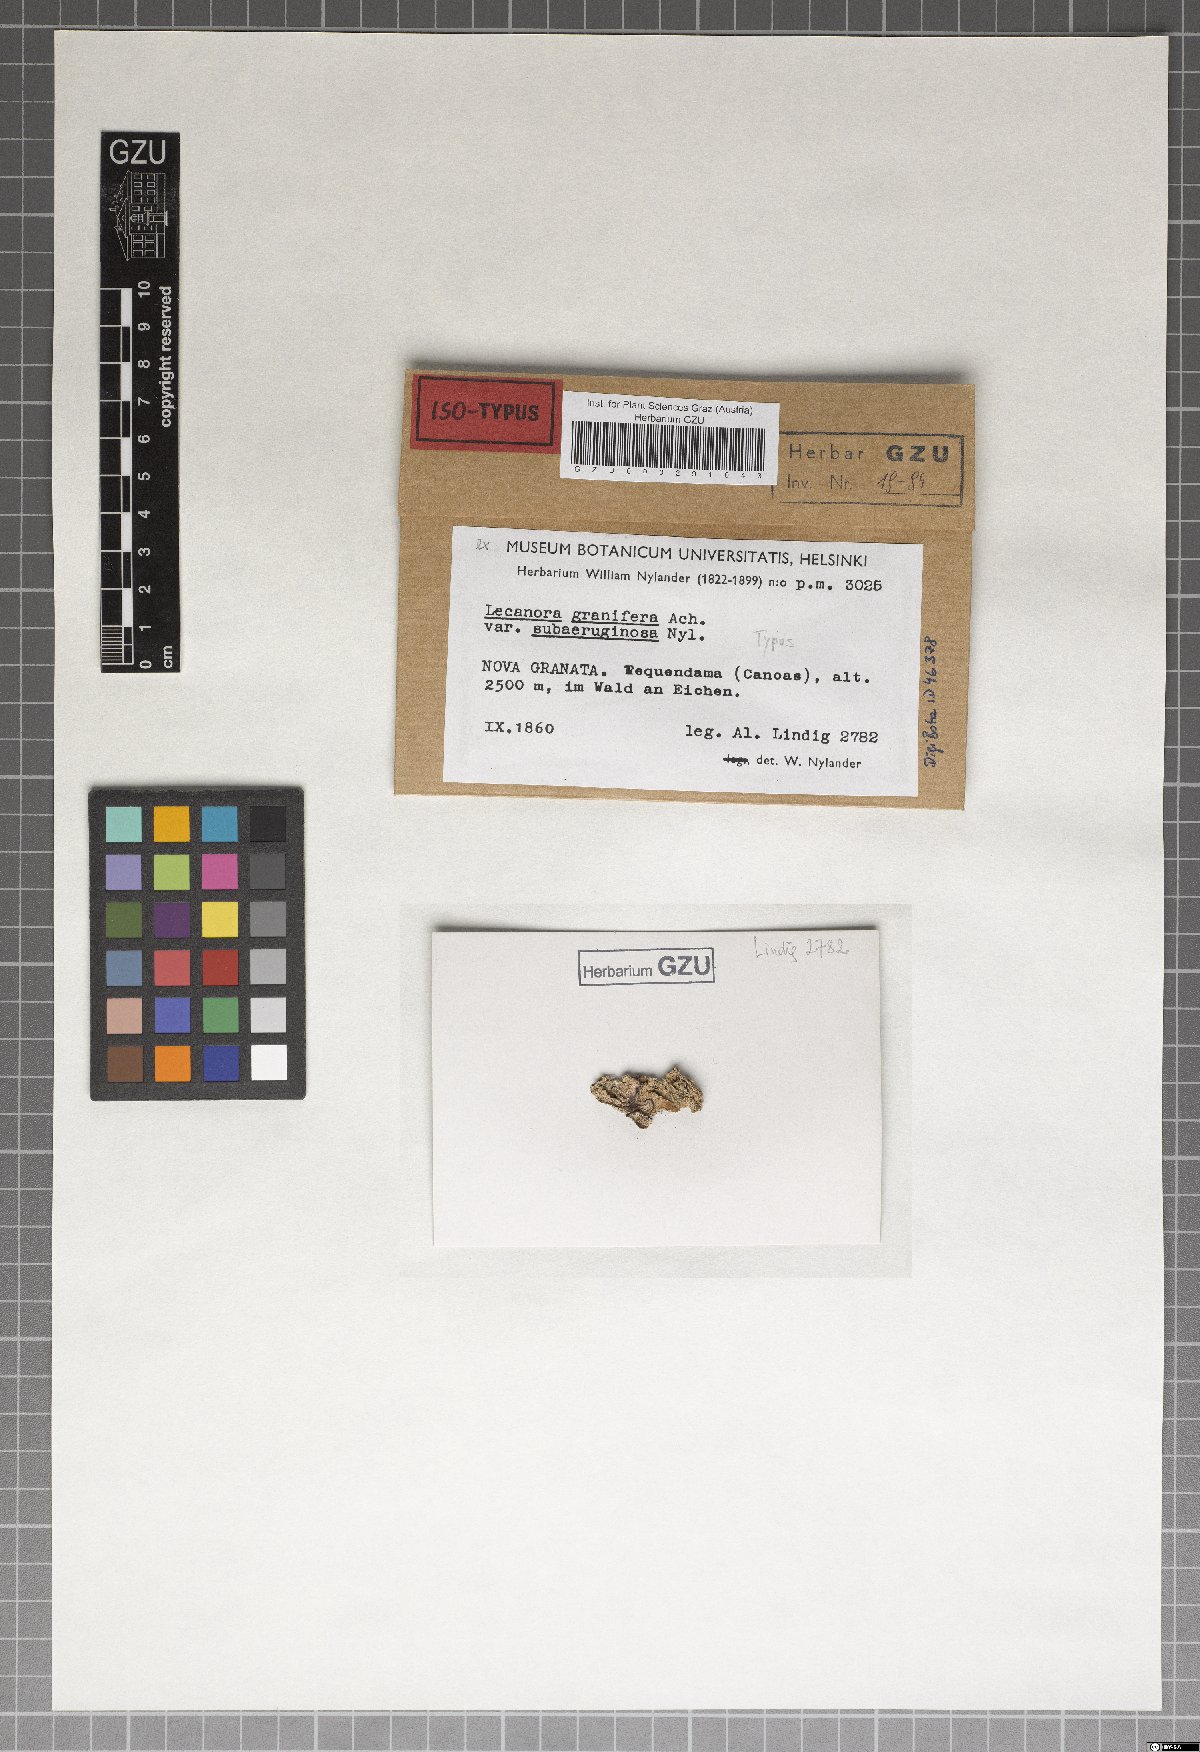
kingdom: Fungi
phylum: Ascomycota
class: Lecanoromycetes
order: Lecanorales
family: Lecanoraceae
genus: Lecanora
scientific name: Lecanora granulifera
